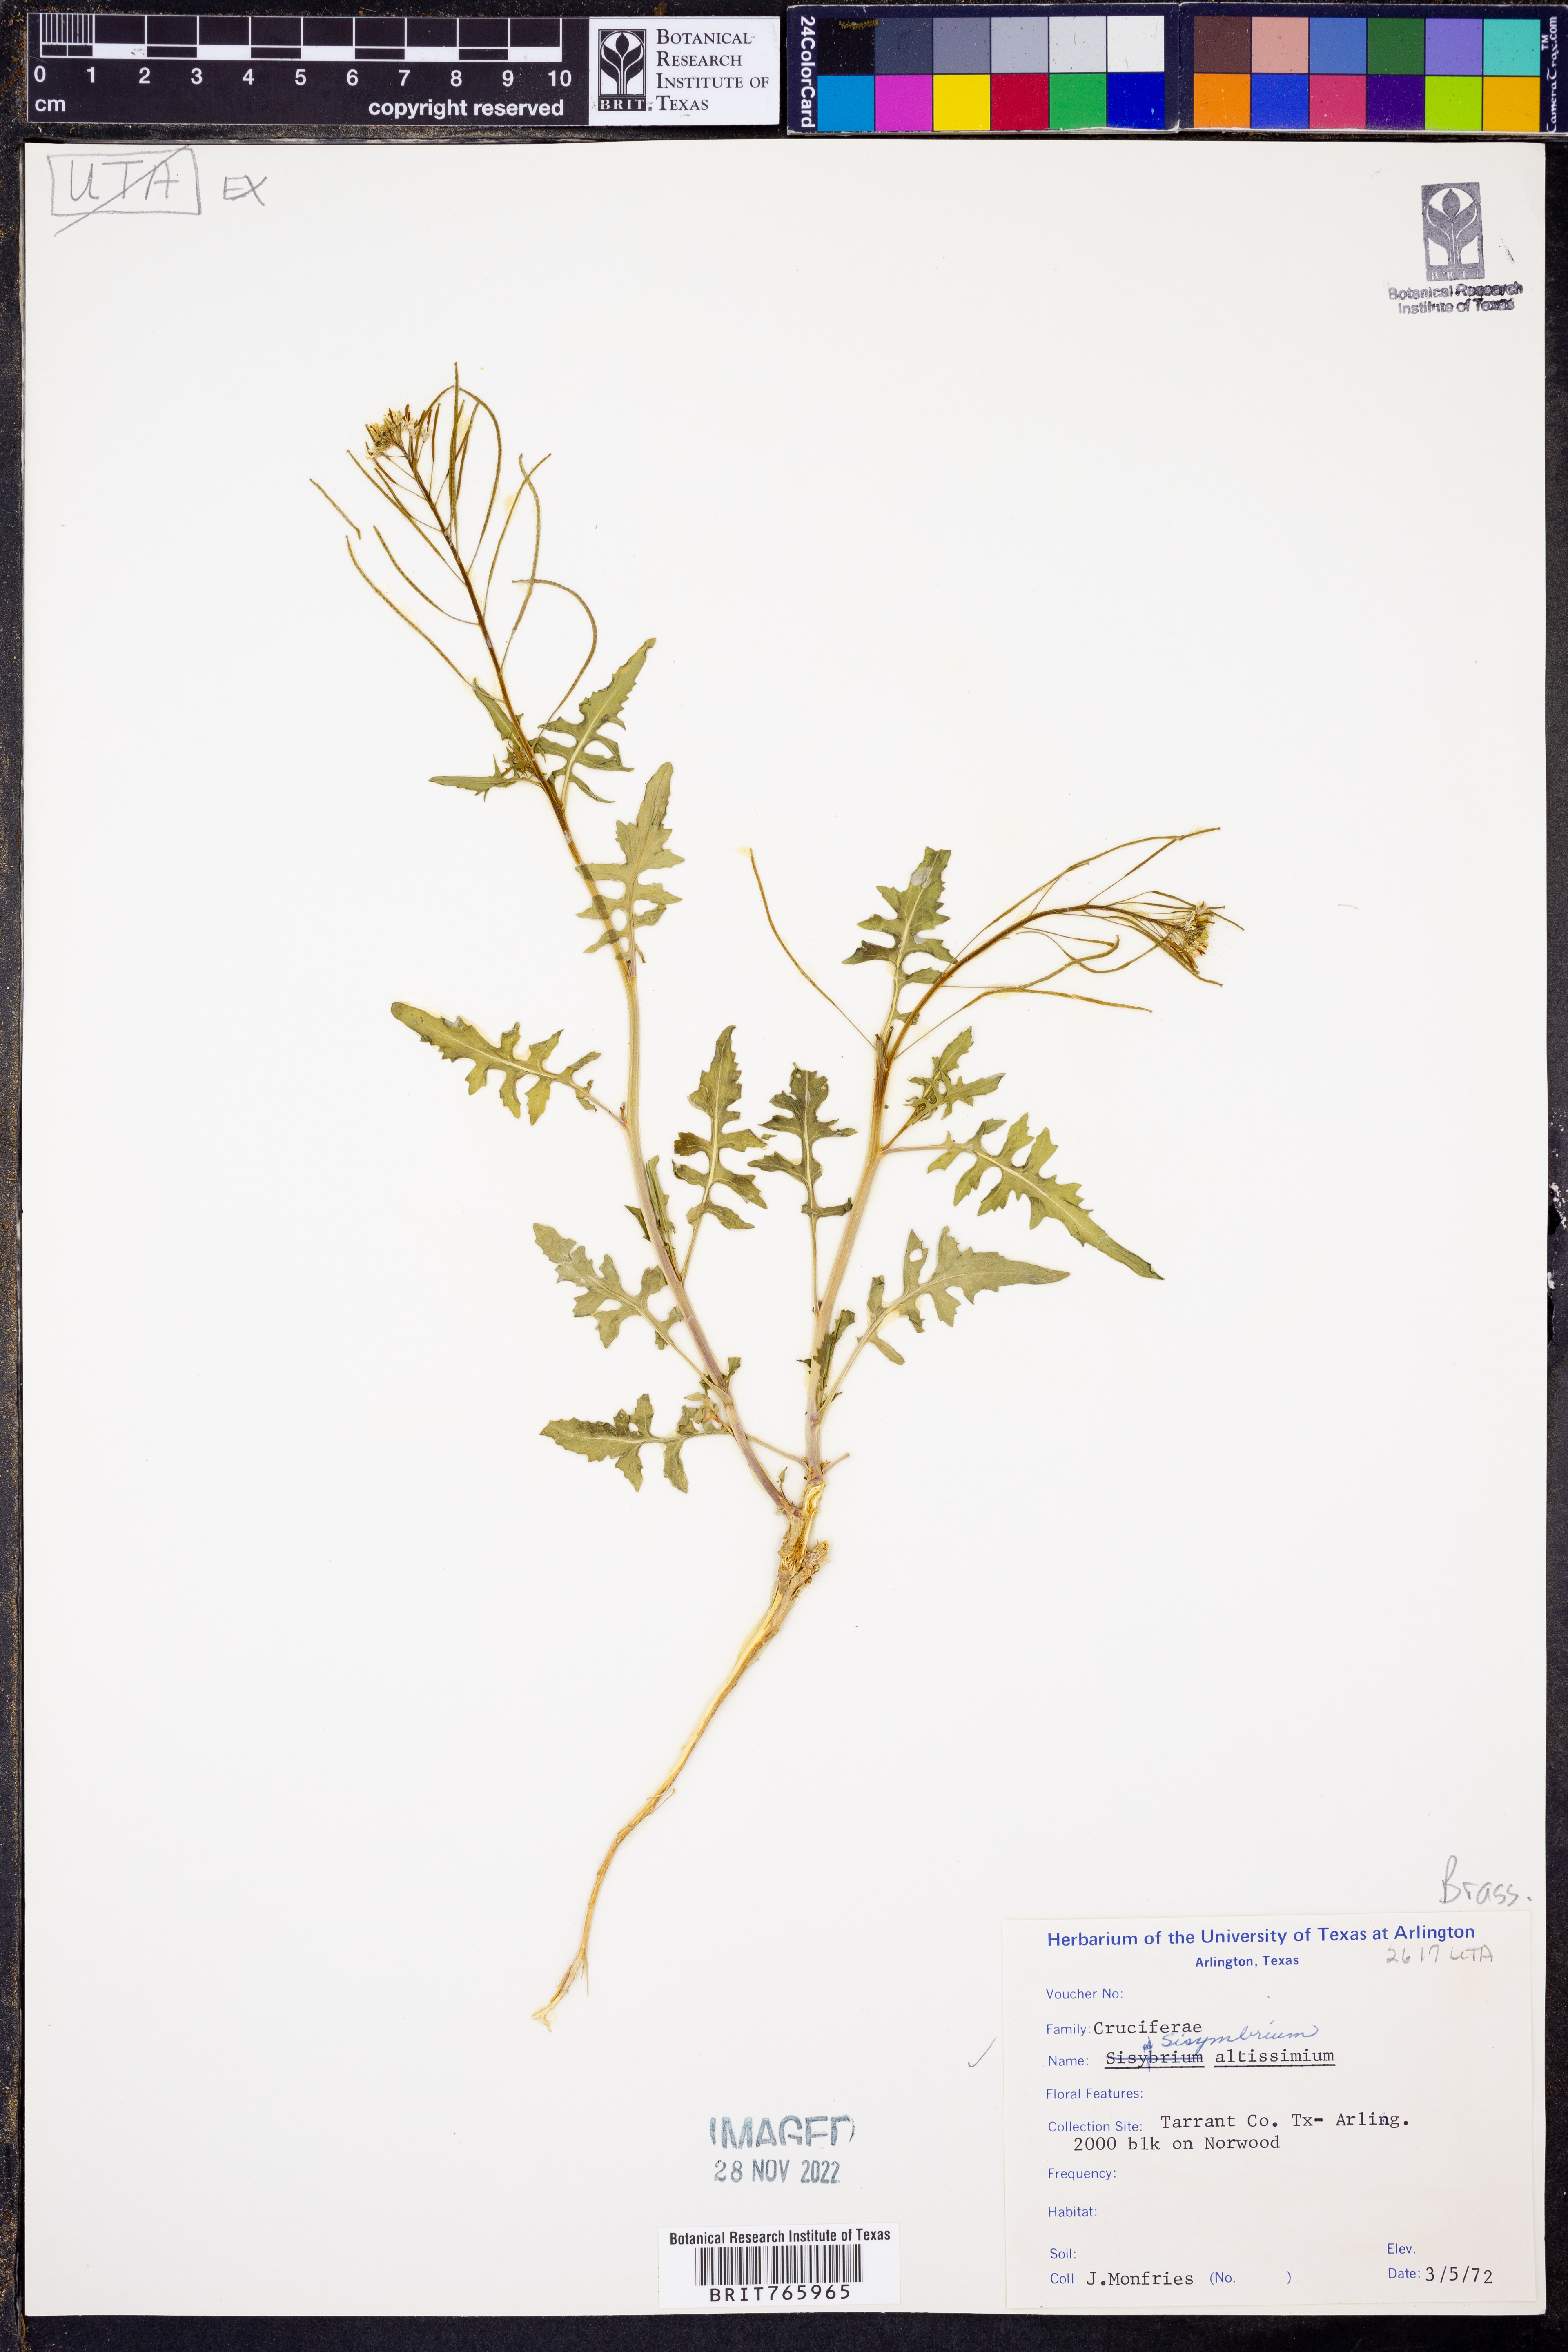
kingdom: Plantae
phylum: Tracheophyta
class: Magnoliopsida
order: Brassicales
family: Brassicaceae
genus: Sisymbrium
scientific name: Sisymbrium altissimum
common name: Tall rocket
